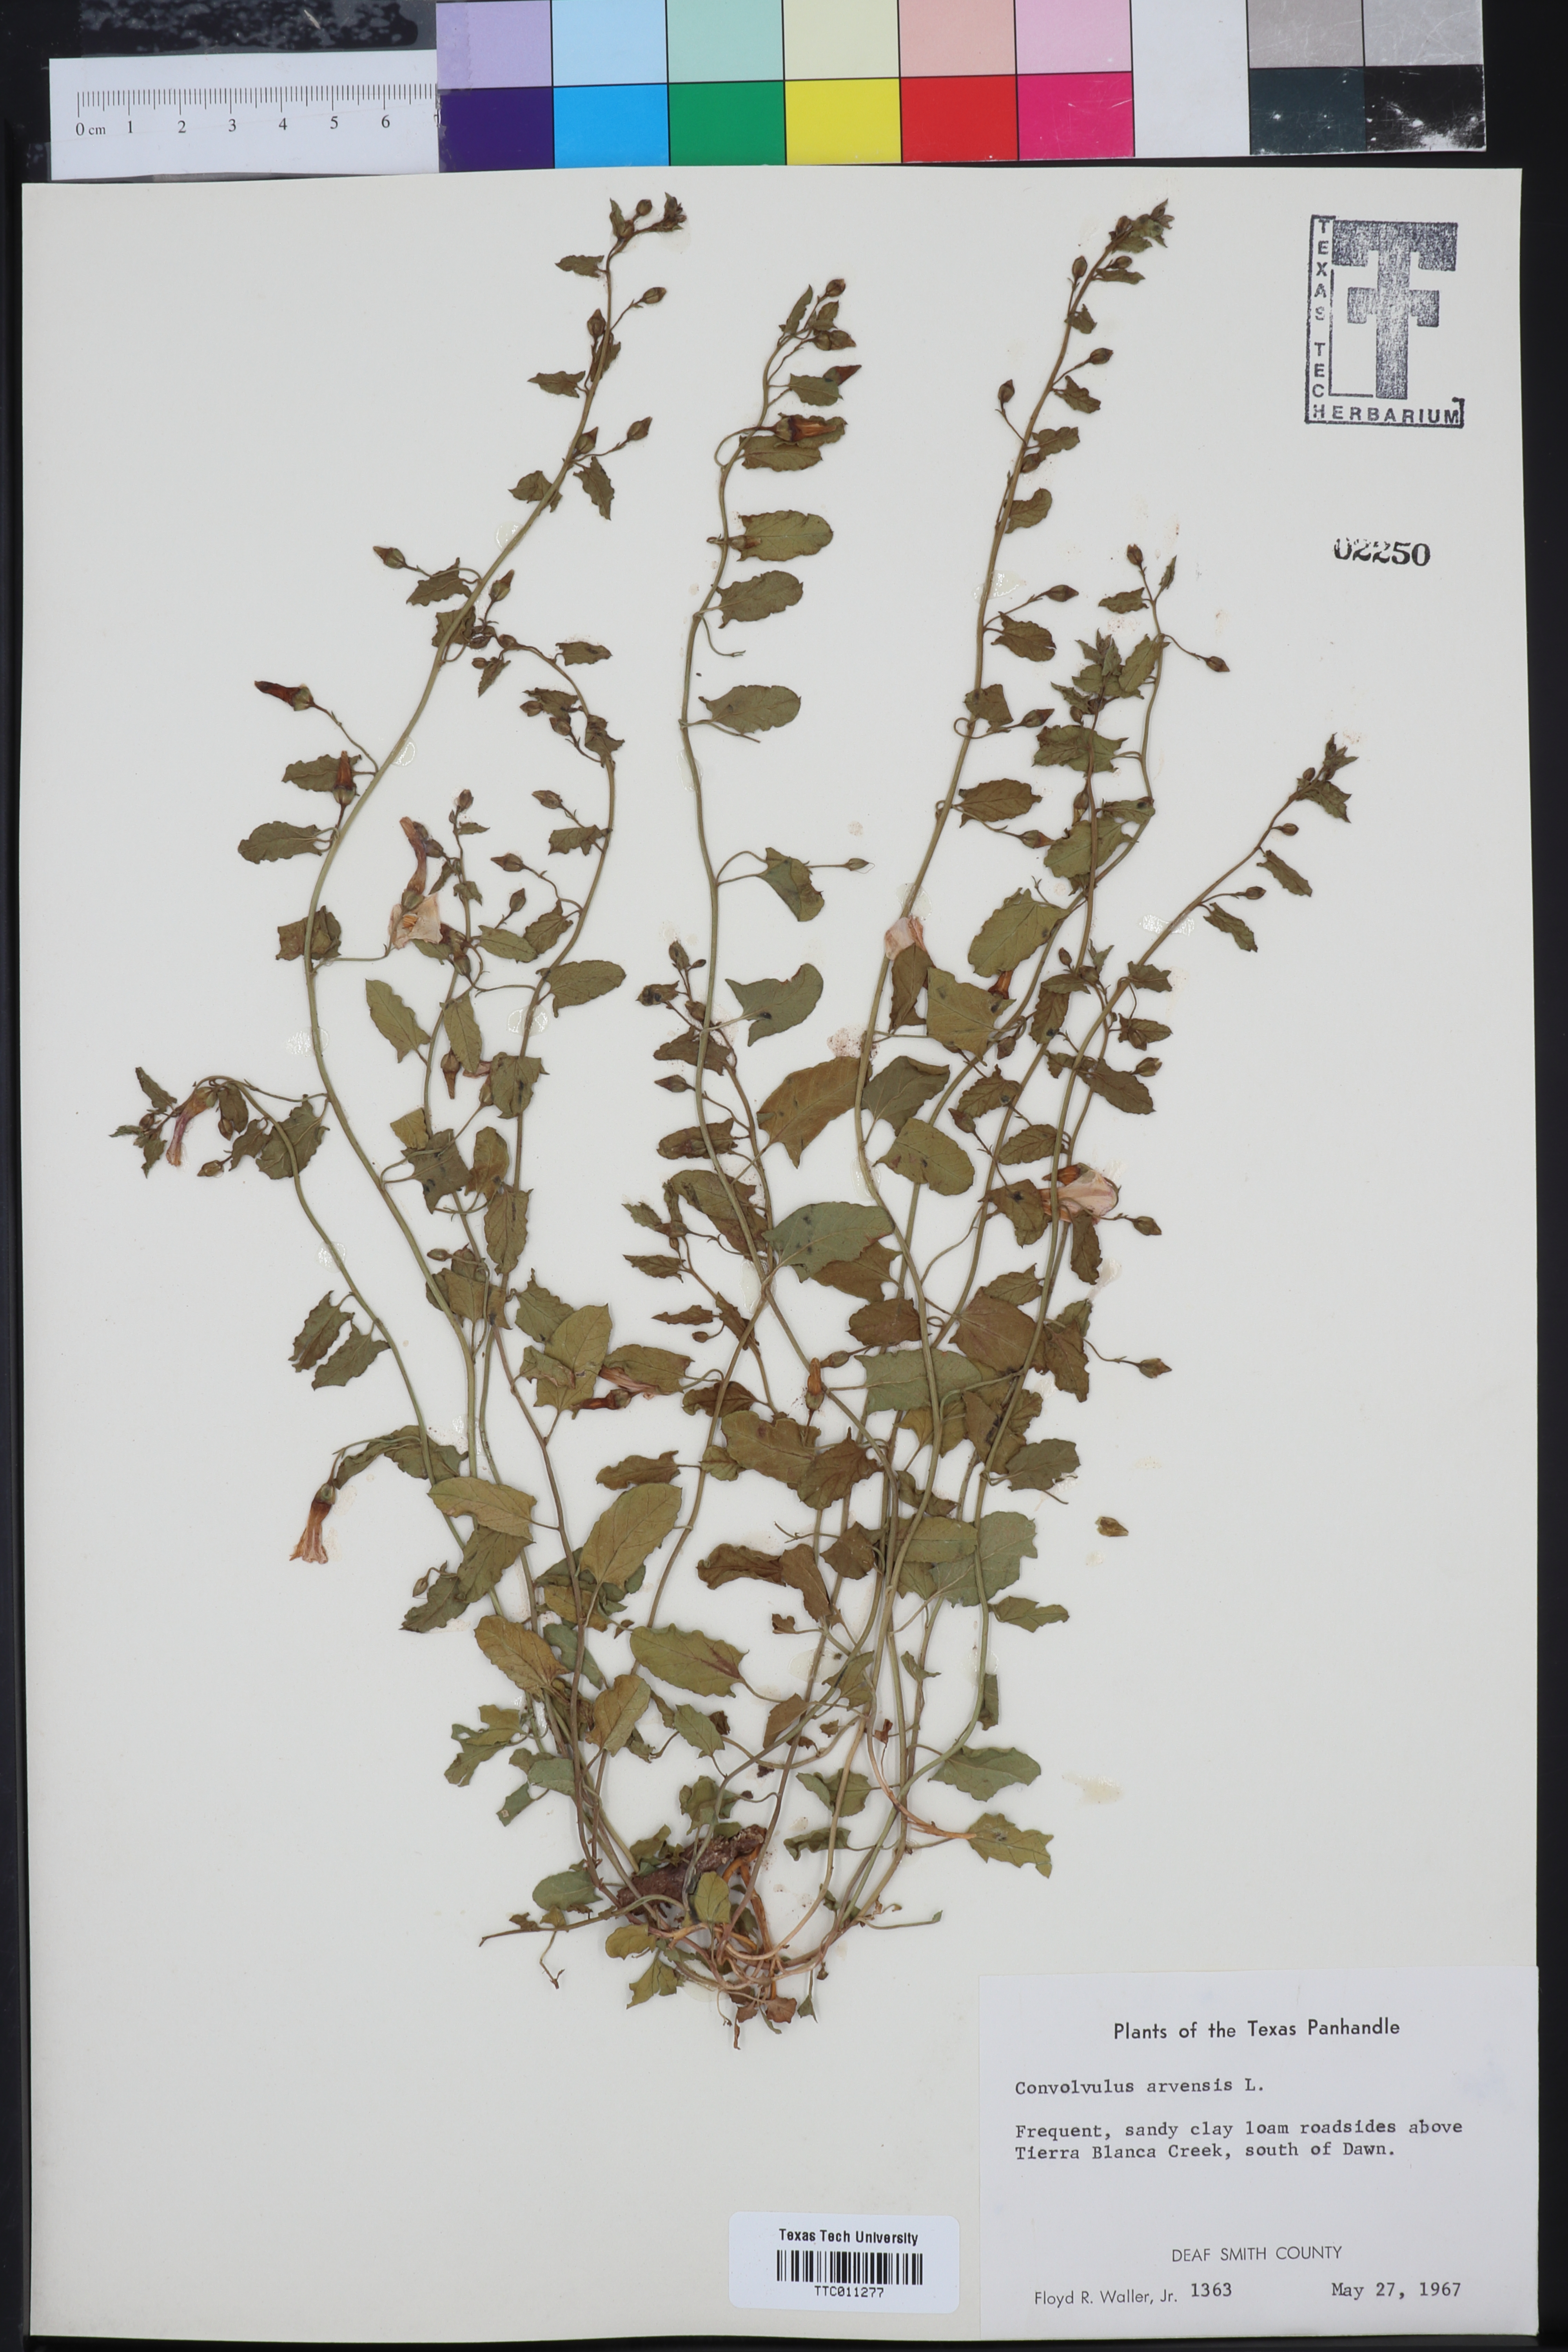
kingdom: Plantae
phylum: Tracheophyta
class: Magnoliopsida
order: Solanales
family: Convolvulaceae
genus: Convolvulus
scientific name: Convolvulus arvensis
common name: Field bindweed
